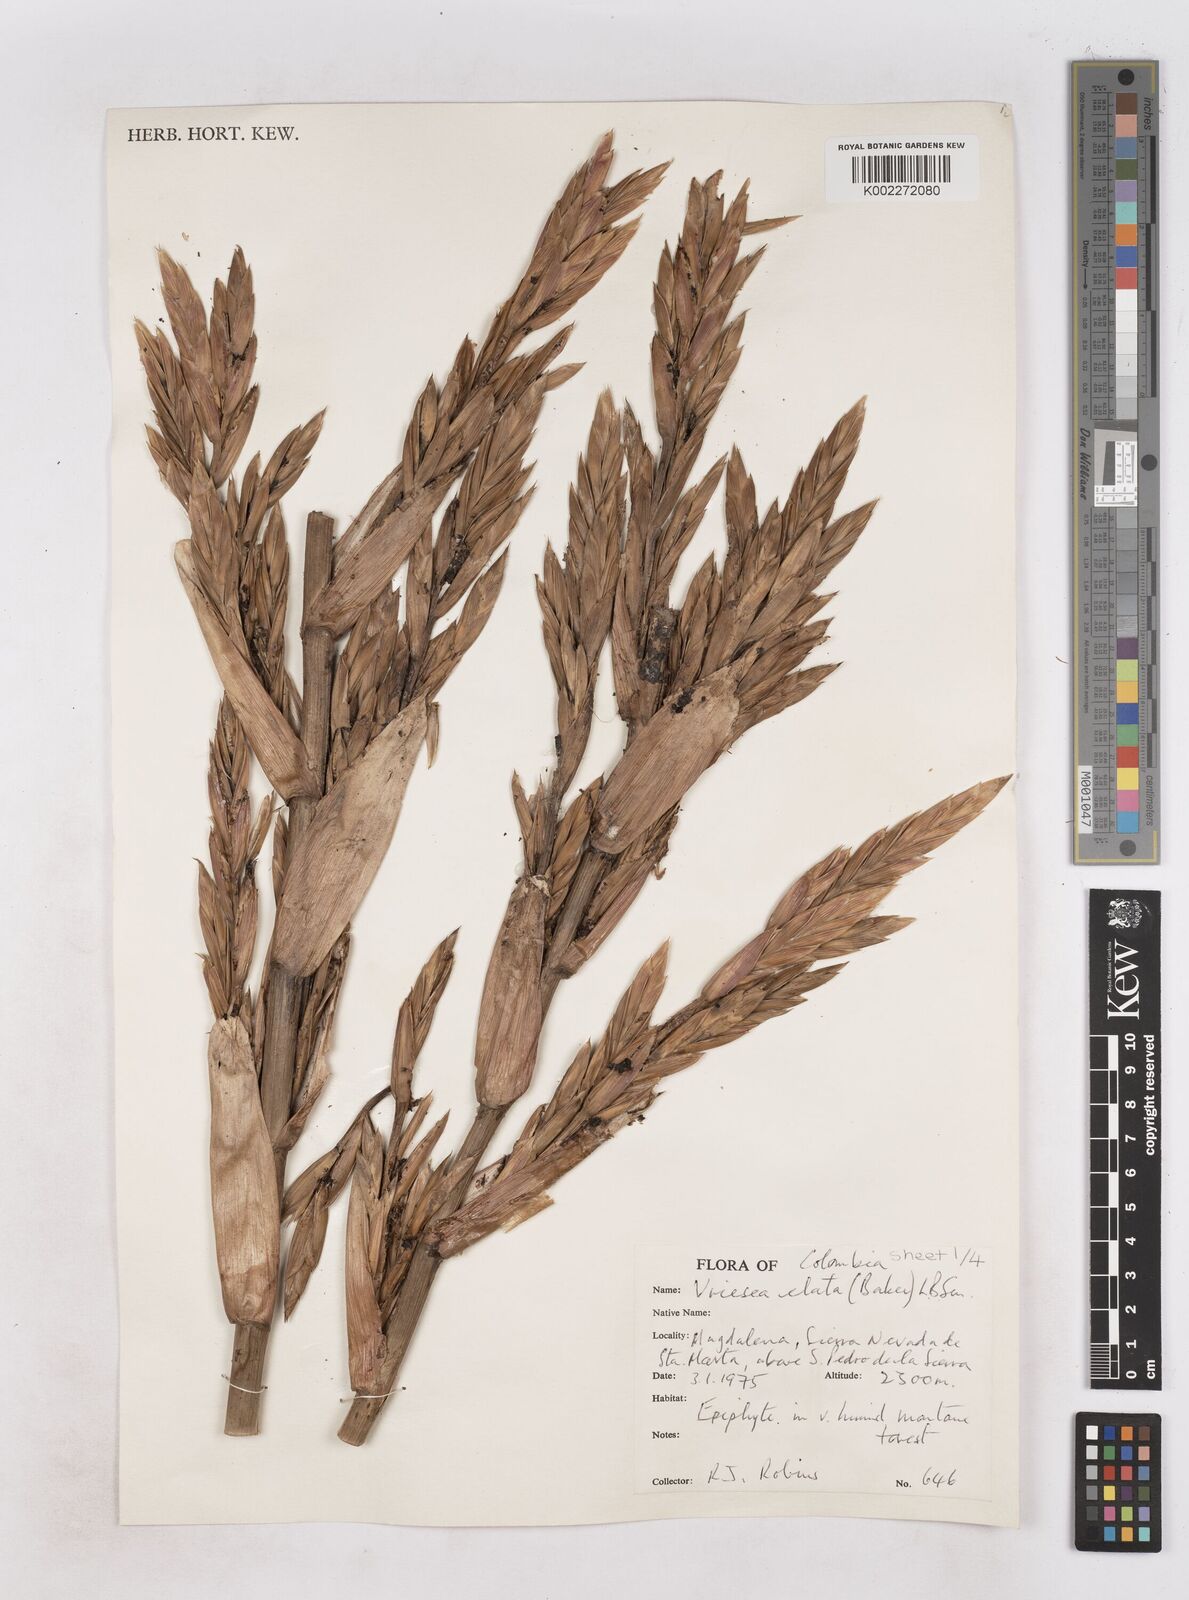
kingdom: Plantae
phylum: Tracheophyta
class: Liliopsida
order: Poales
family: Bromeliaceae
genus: Vriesea
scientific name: Vriesea elata
